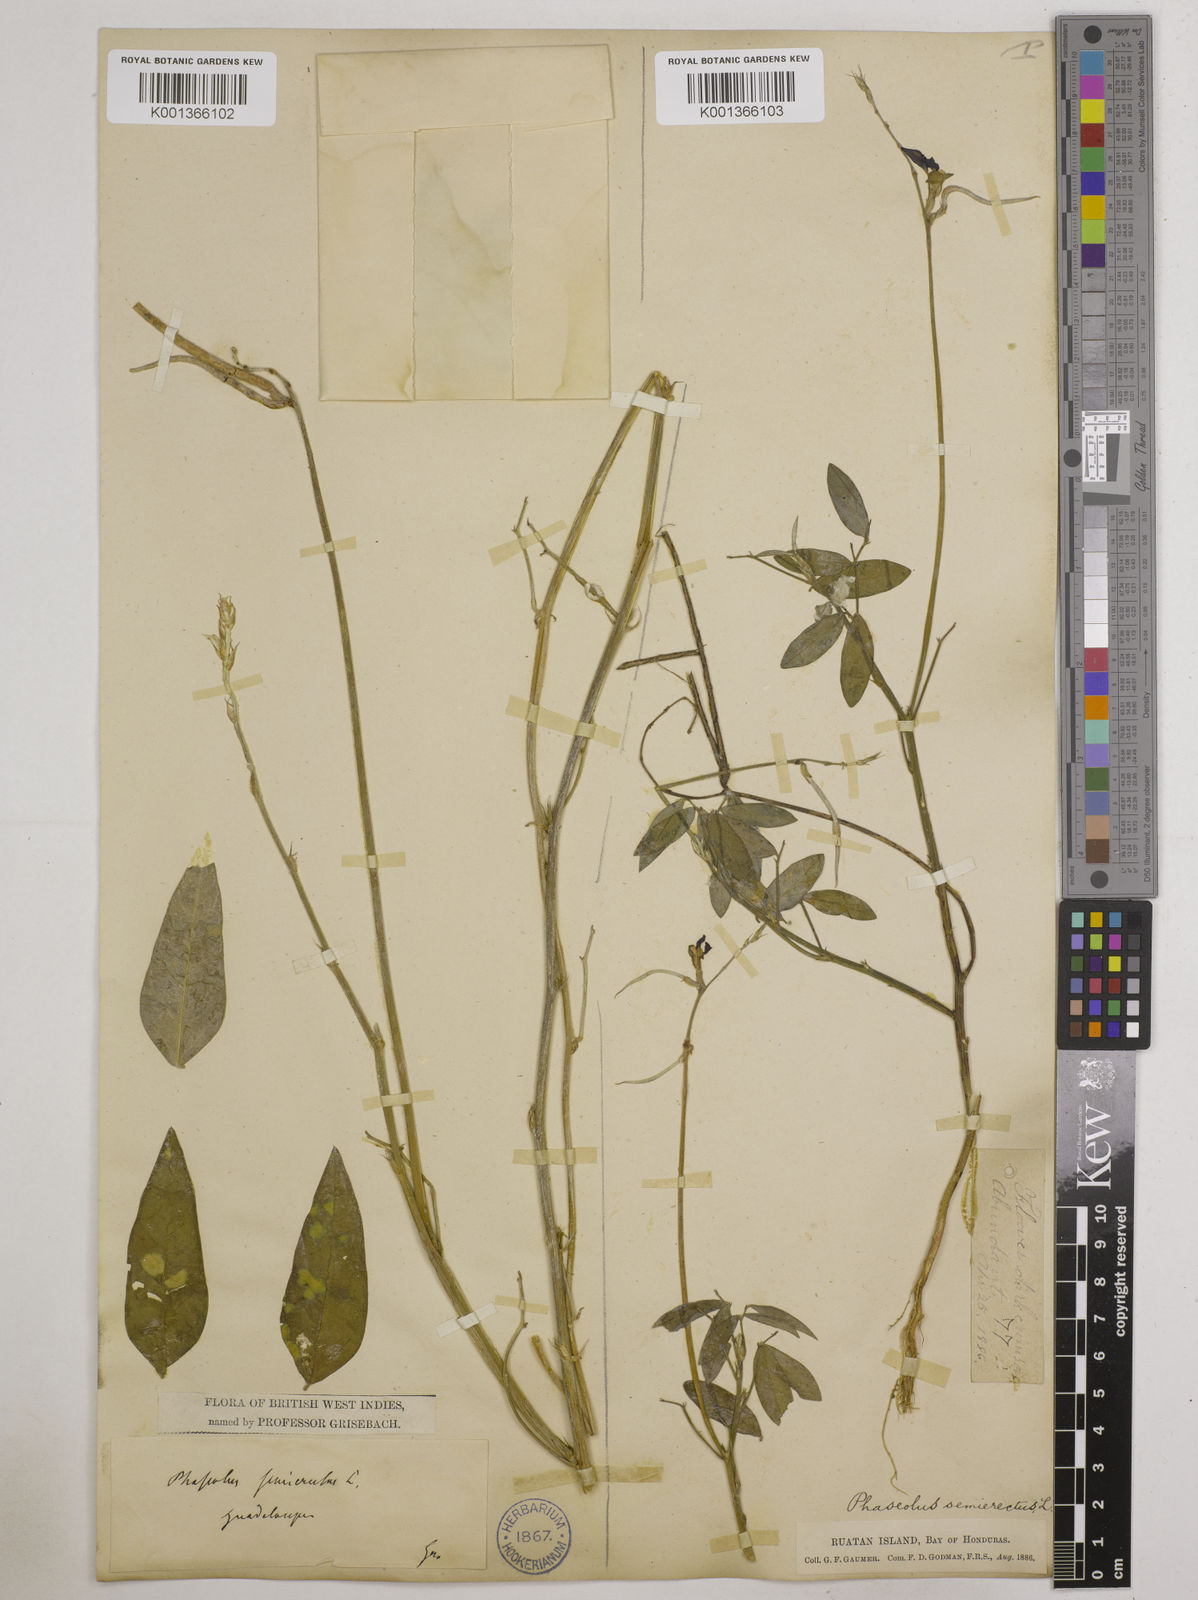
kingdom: Plantae
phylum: Tracheophyta
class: Magnoliopsida
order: Fabales
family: Fabaceae
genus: Macroptilium
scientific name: Macroptilium lathyroides
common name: Wild bushbean
